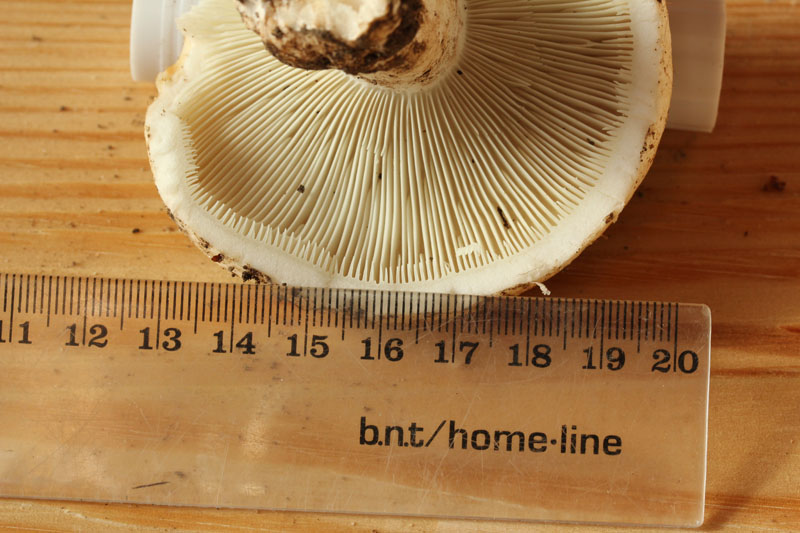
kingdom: Fungi
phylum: Basidiomycota
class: Agaricomycetes
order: Russulales
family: Russulaceae
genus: Russula
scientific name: Russula chloroides
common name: grønhalset tragt-skørhat
